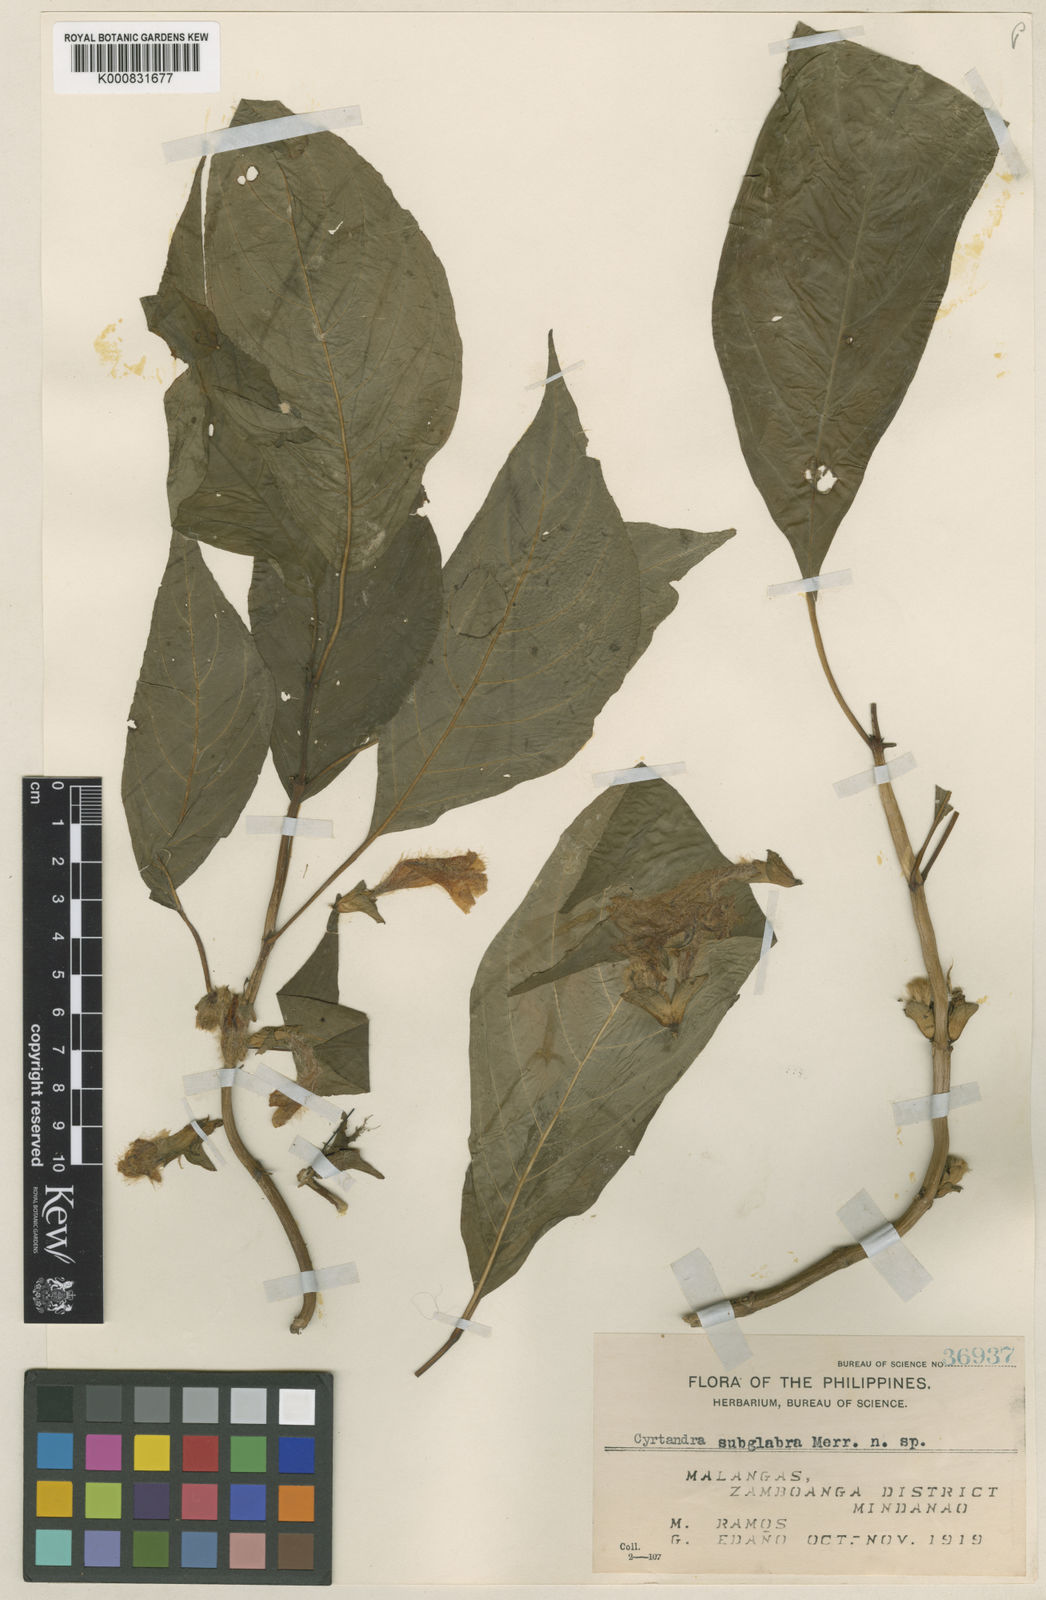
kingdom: Plantae
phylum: Tracheophyta
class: Magnoliopsida
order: Lamiales
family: Gesneriaceae
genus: Cyrtandra
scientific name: Cyrtandra subglabra
